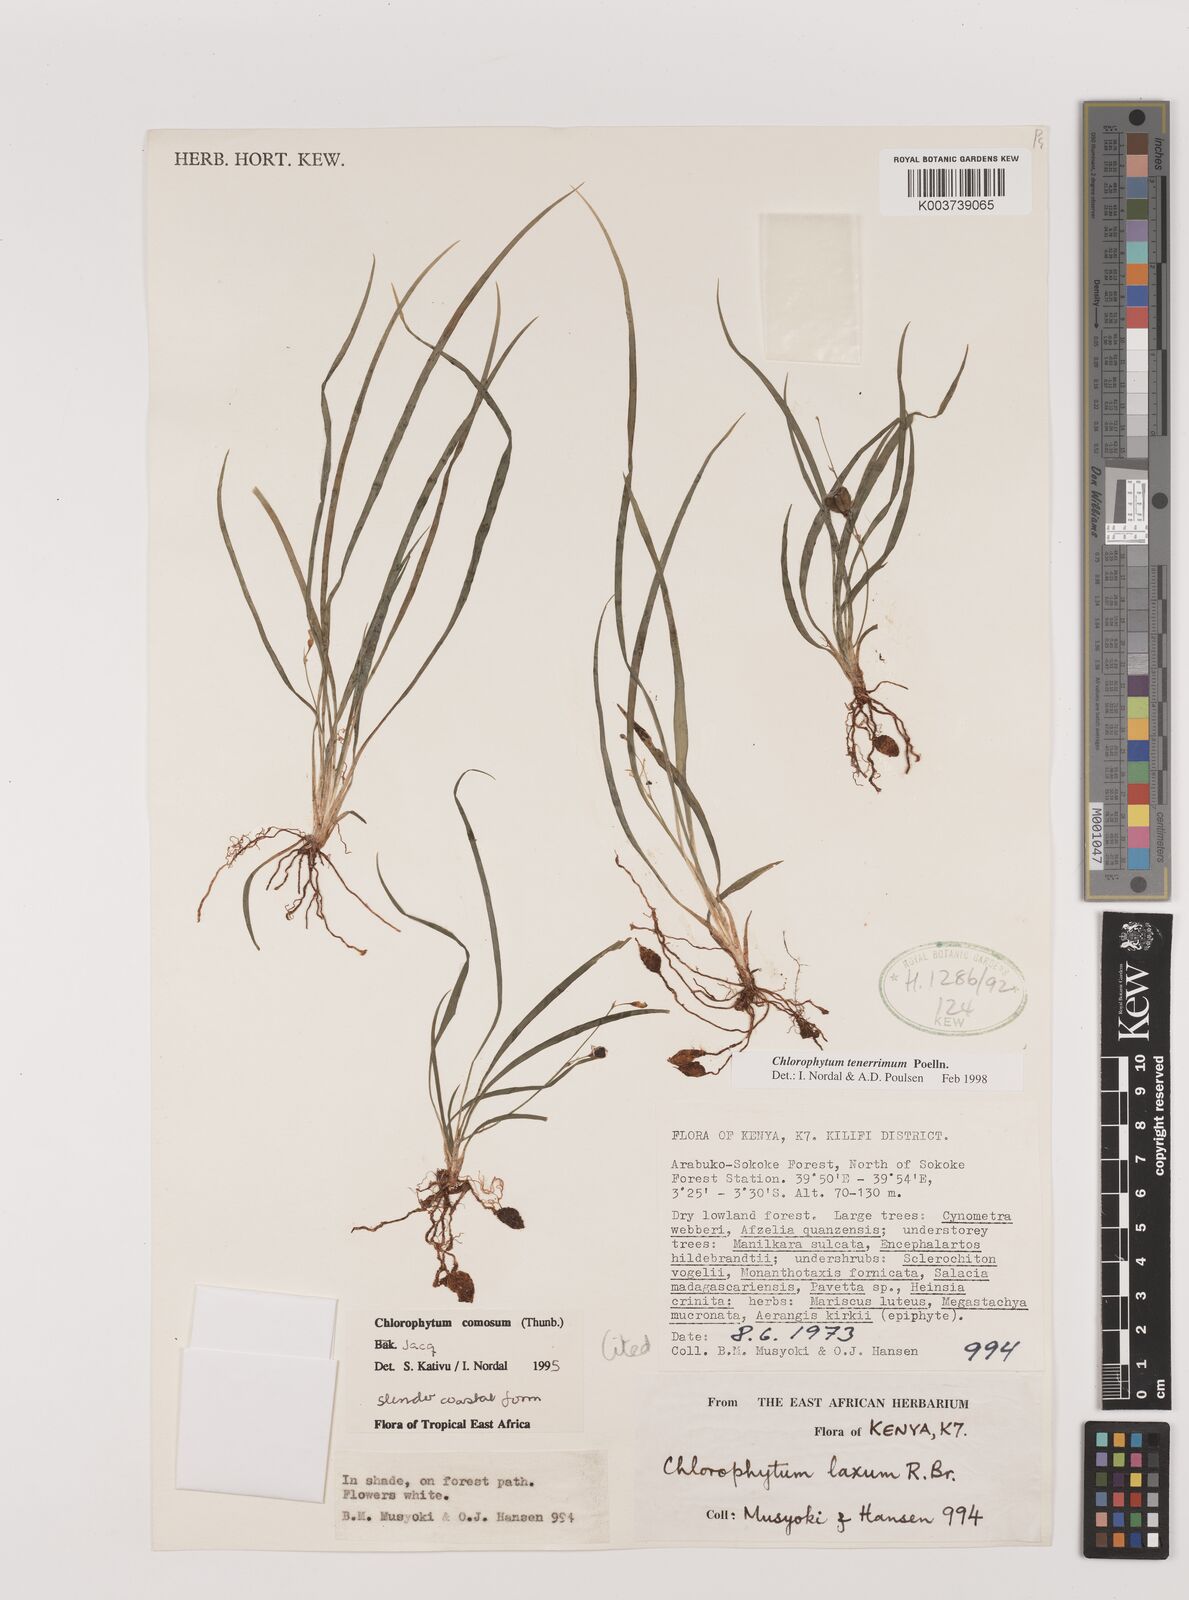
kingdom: Plantae
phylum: Tracheophyta
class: Liliopsida
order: Asparagales
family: Asparagaceae
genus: Chlorophytum
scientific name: Chlorophytum tenerrimum
